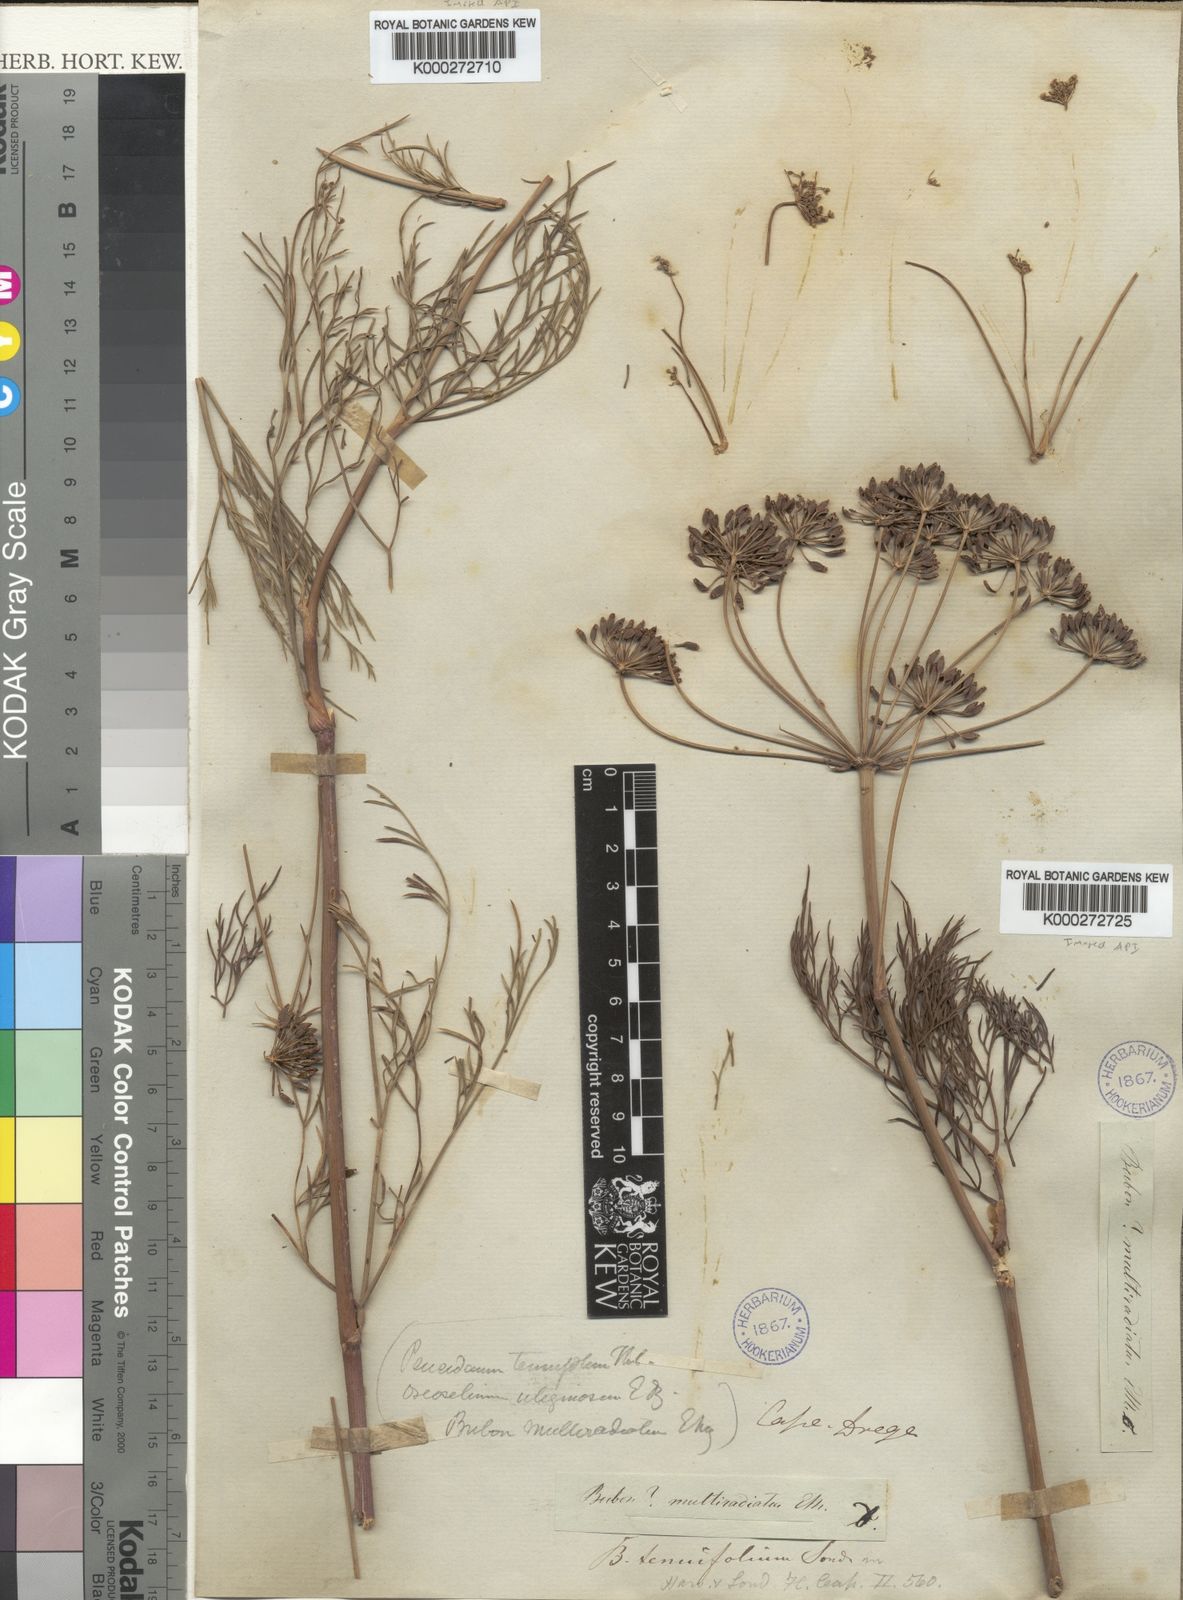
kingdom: Plantae
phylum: Tracheophyta
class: Magnoliopsida
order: Apiales
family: Apiaceae
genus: Anethum
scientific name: Anethum
